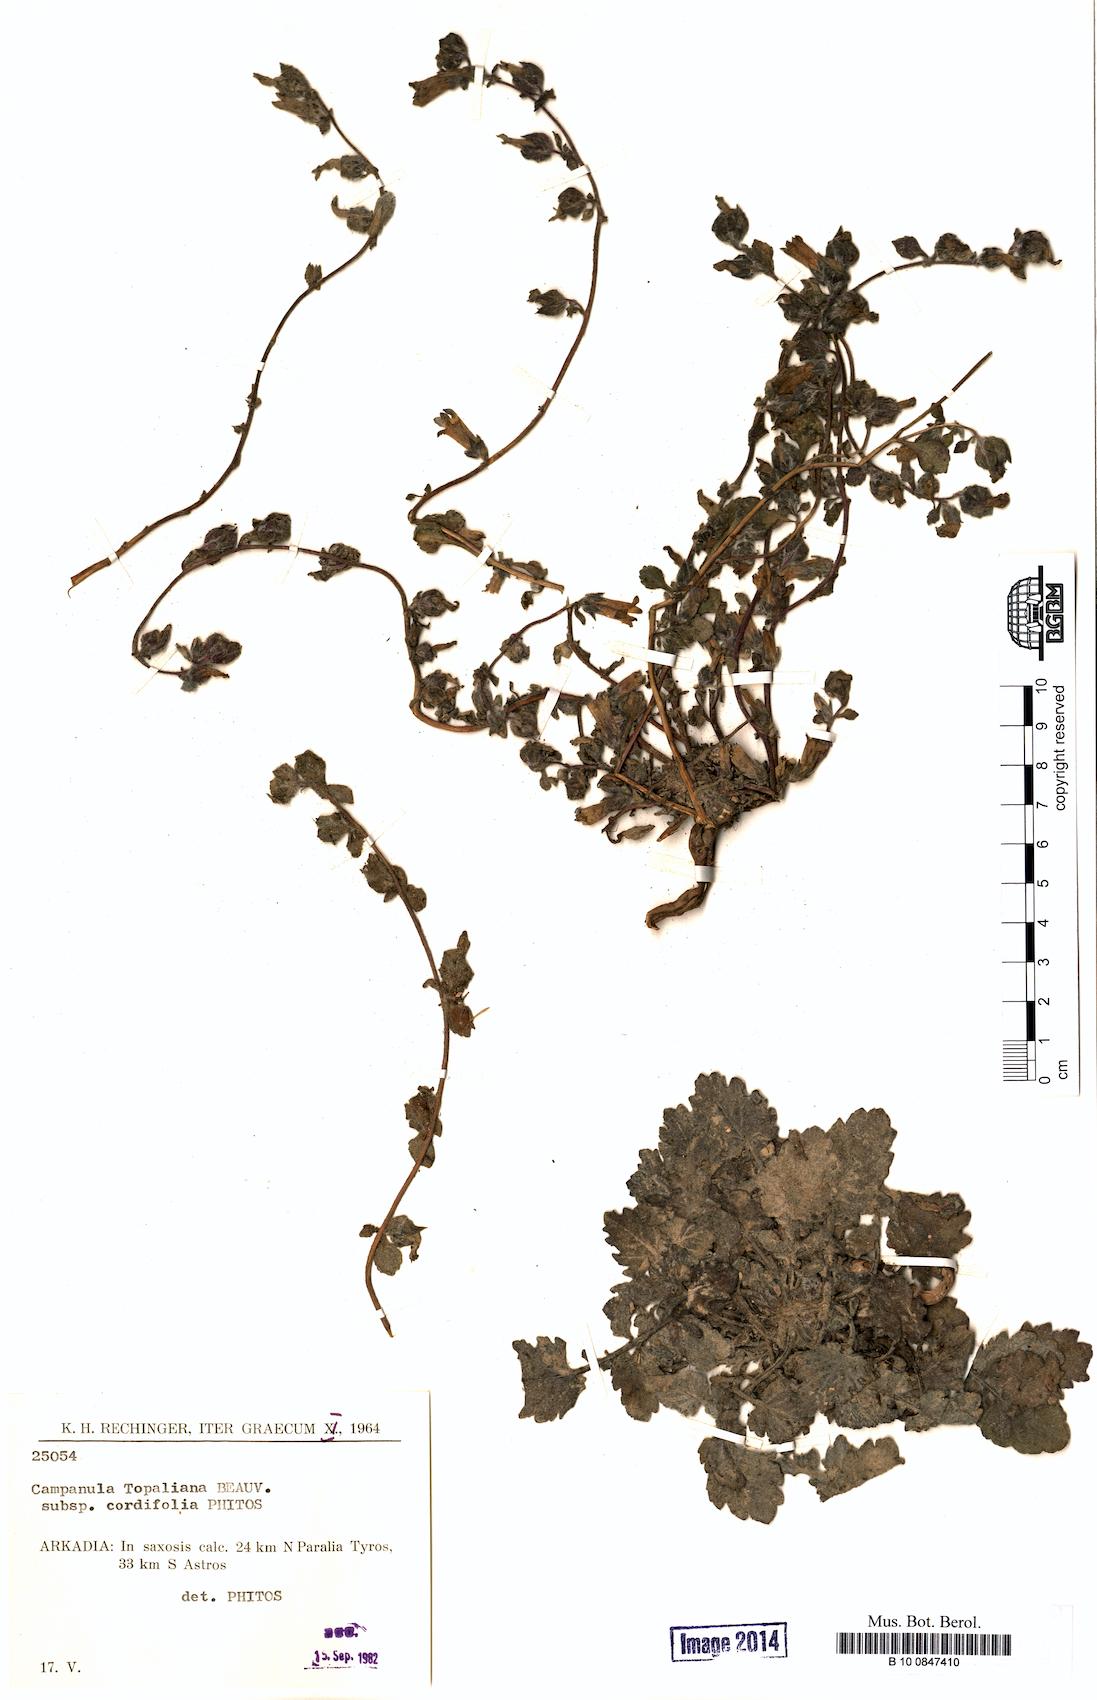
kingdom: Plantae
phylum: Tracheophyta
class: Magnoliopsida
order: Asterales
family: Campanulaceae
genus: Campanula
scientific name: Campanula topaliana
